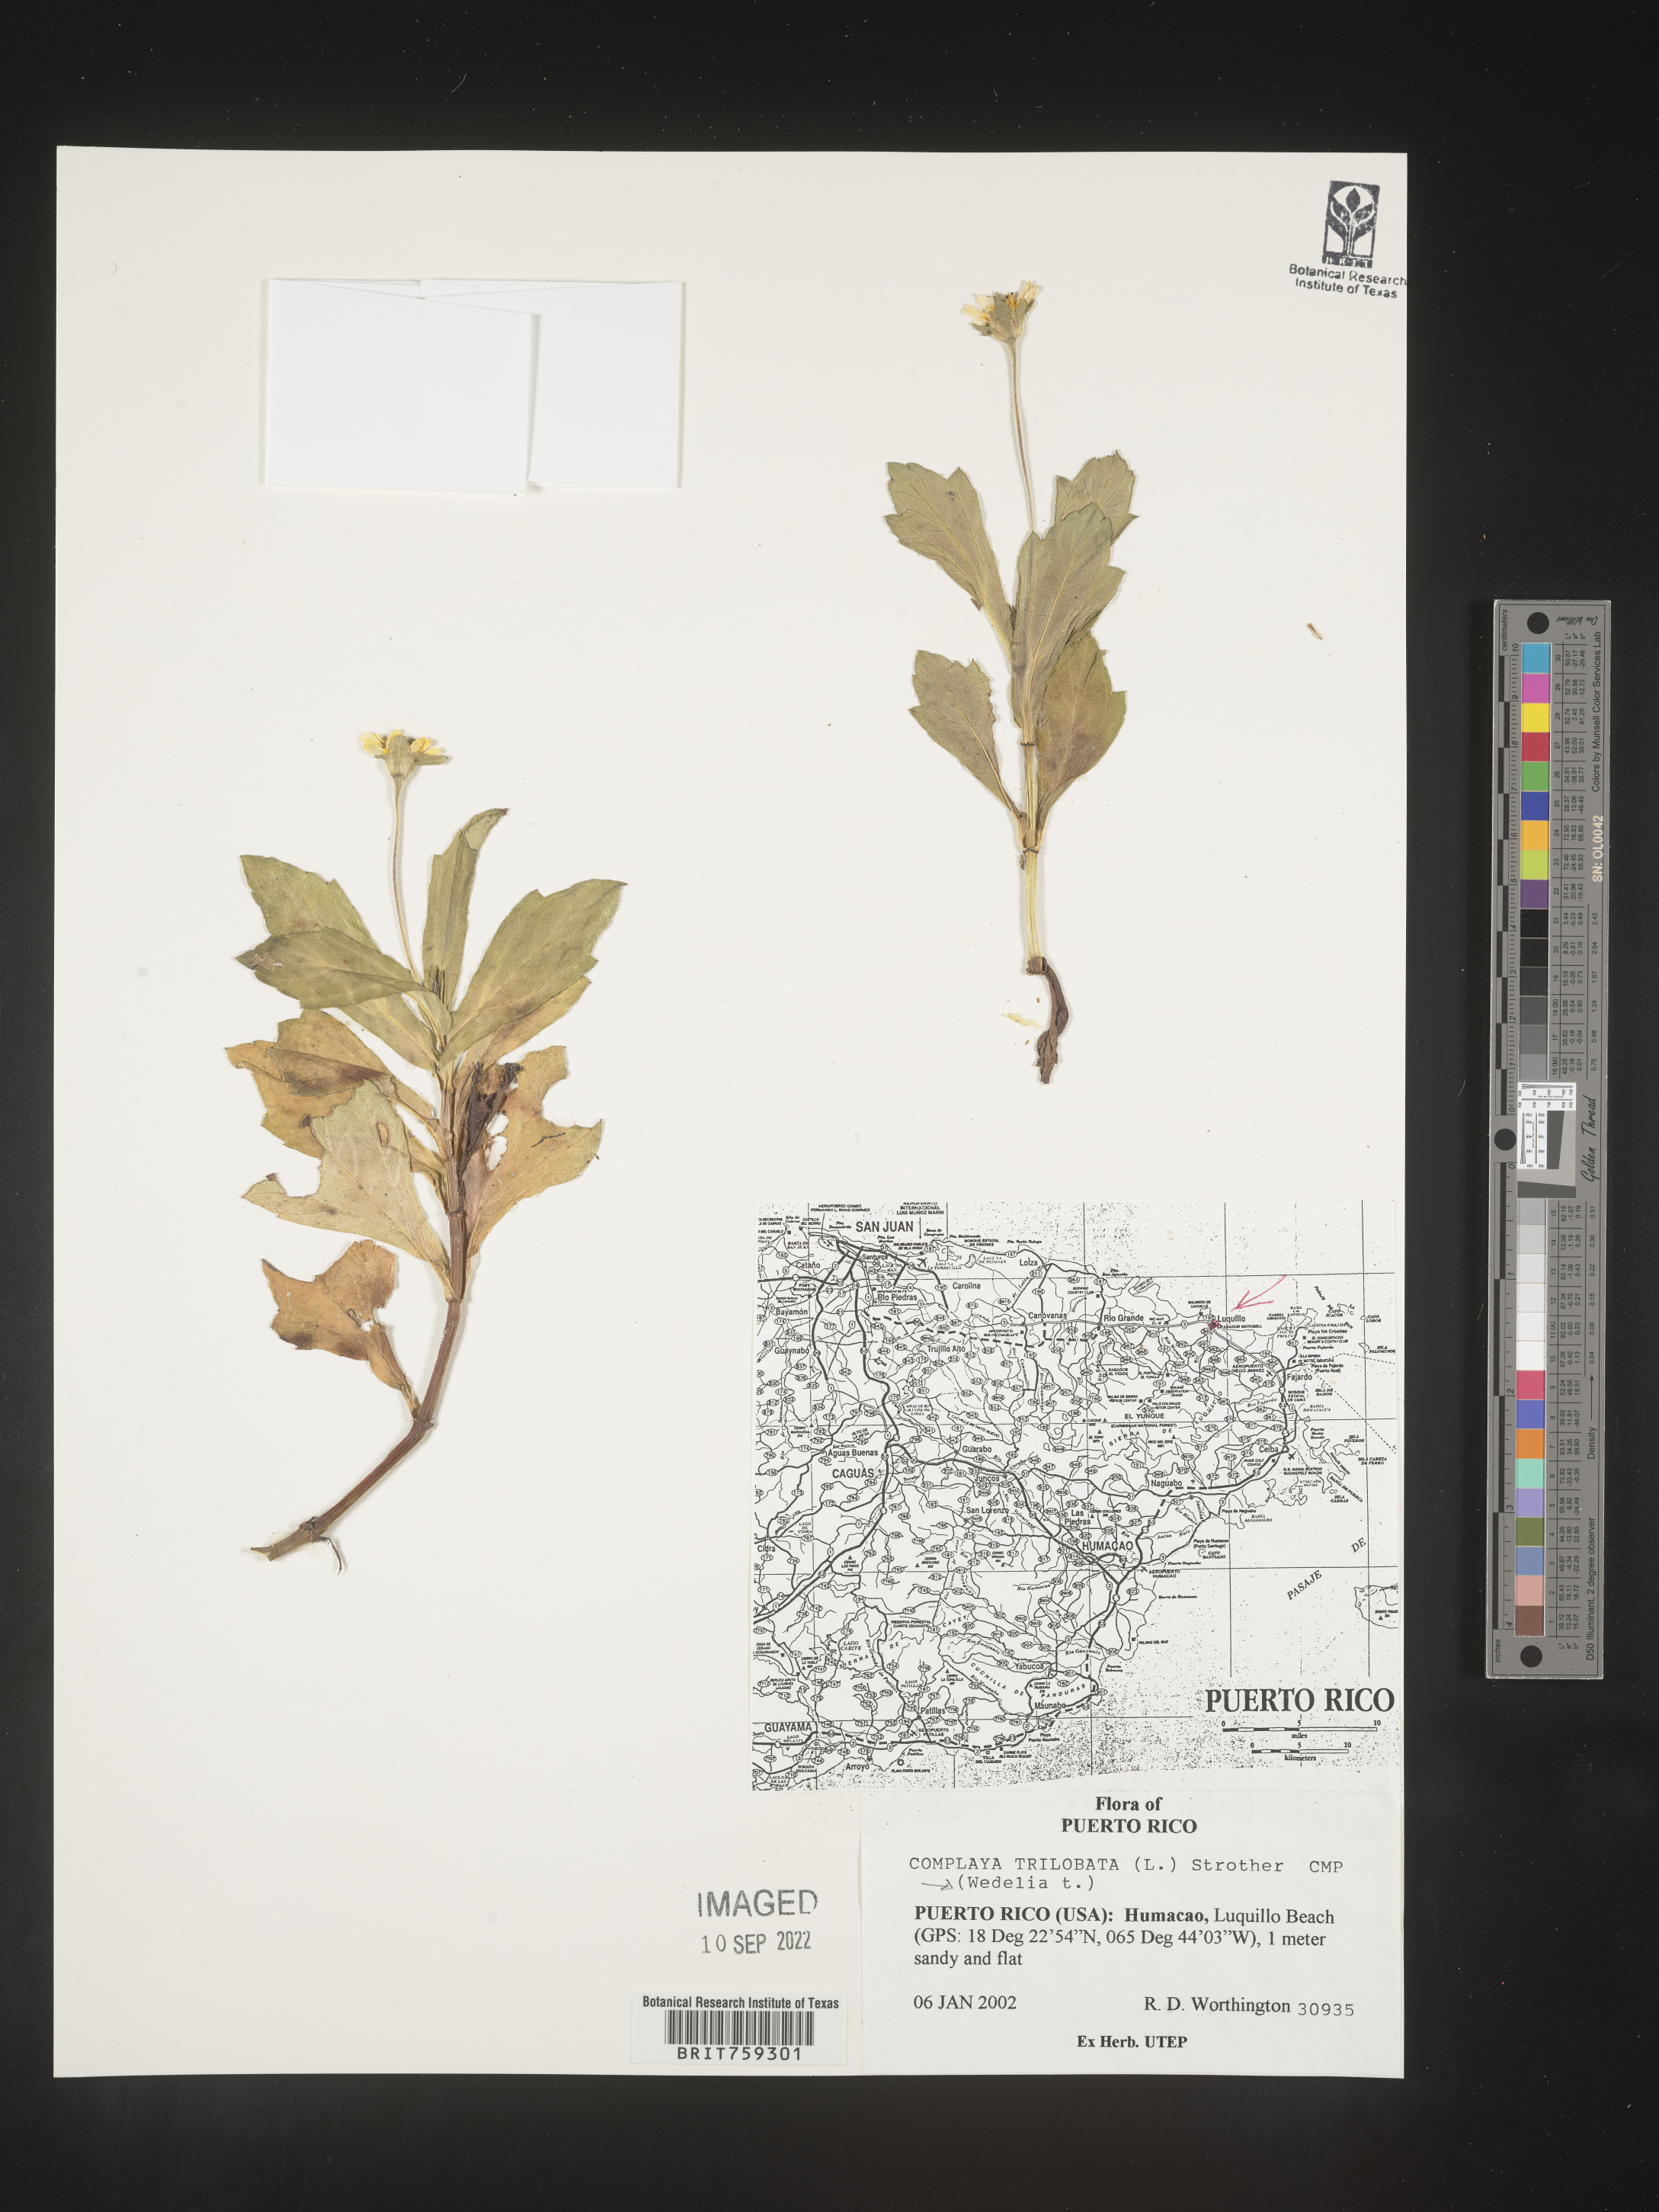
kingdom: Plantae
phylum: Tracheophyta
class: Magnoliopsida
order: Asterales
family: Asteraceae
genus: Wedelia
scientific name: Wedelia
